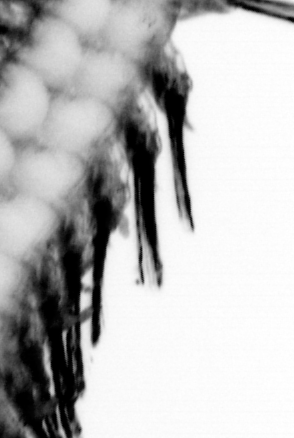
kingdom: Animalia
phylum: Annelida
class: Polychaeta
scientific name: Polychaeta
